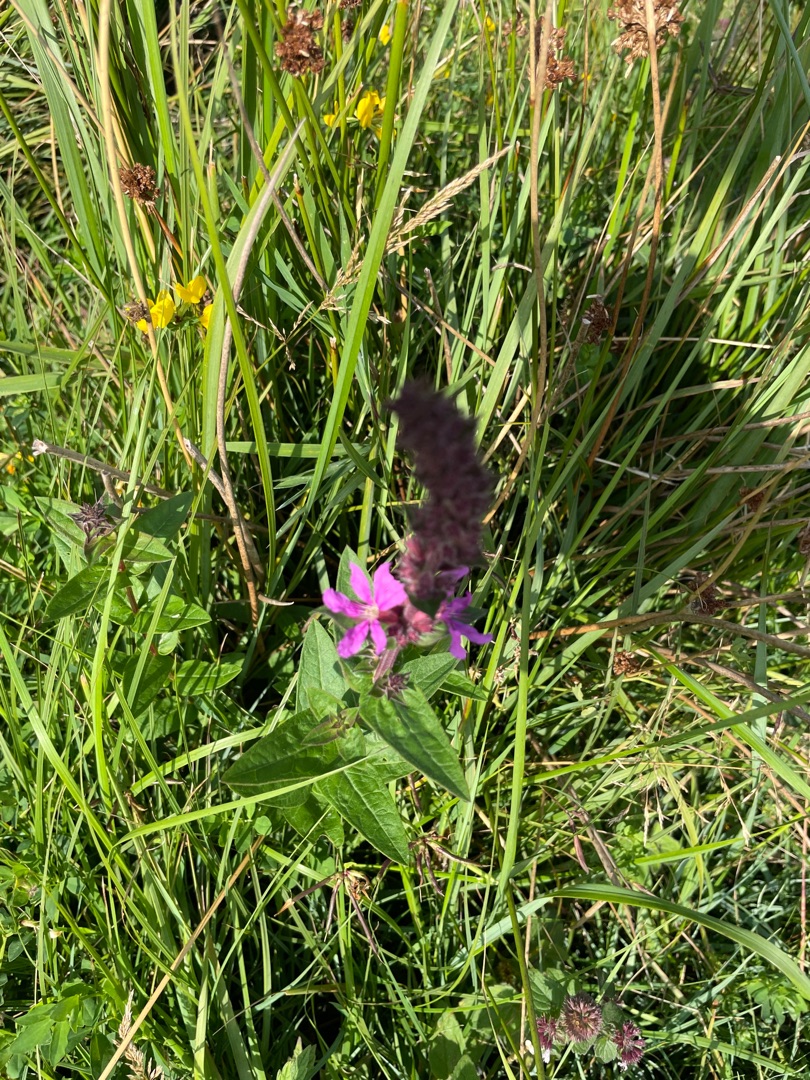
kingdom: Plantae
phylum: Tracheophyta
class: Magnoliopsida
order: Myrtales
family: Lythraceae
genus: Lythrum
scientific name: Lythrum salicaria
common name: Kattehale
